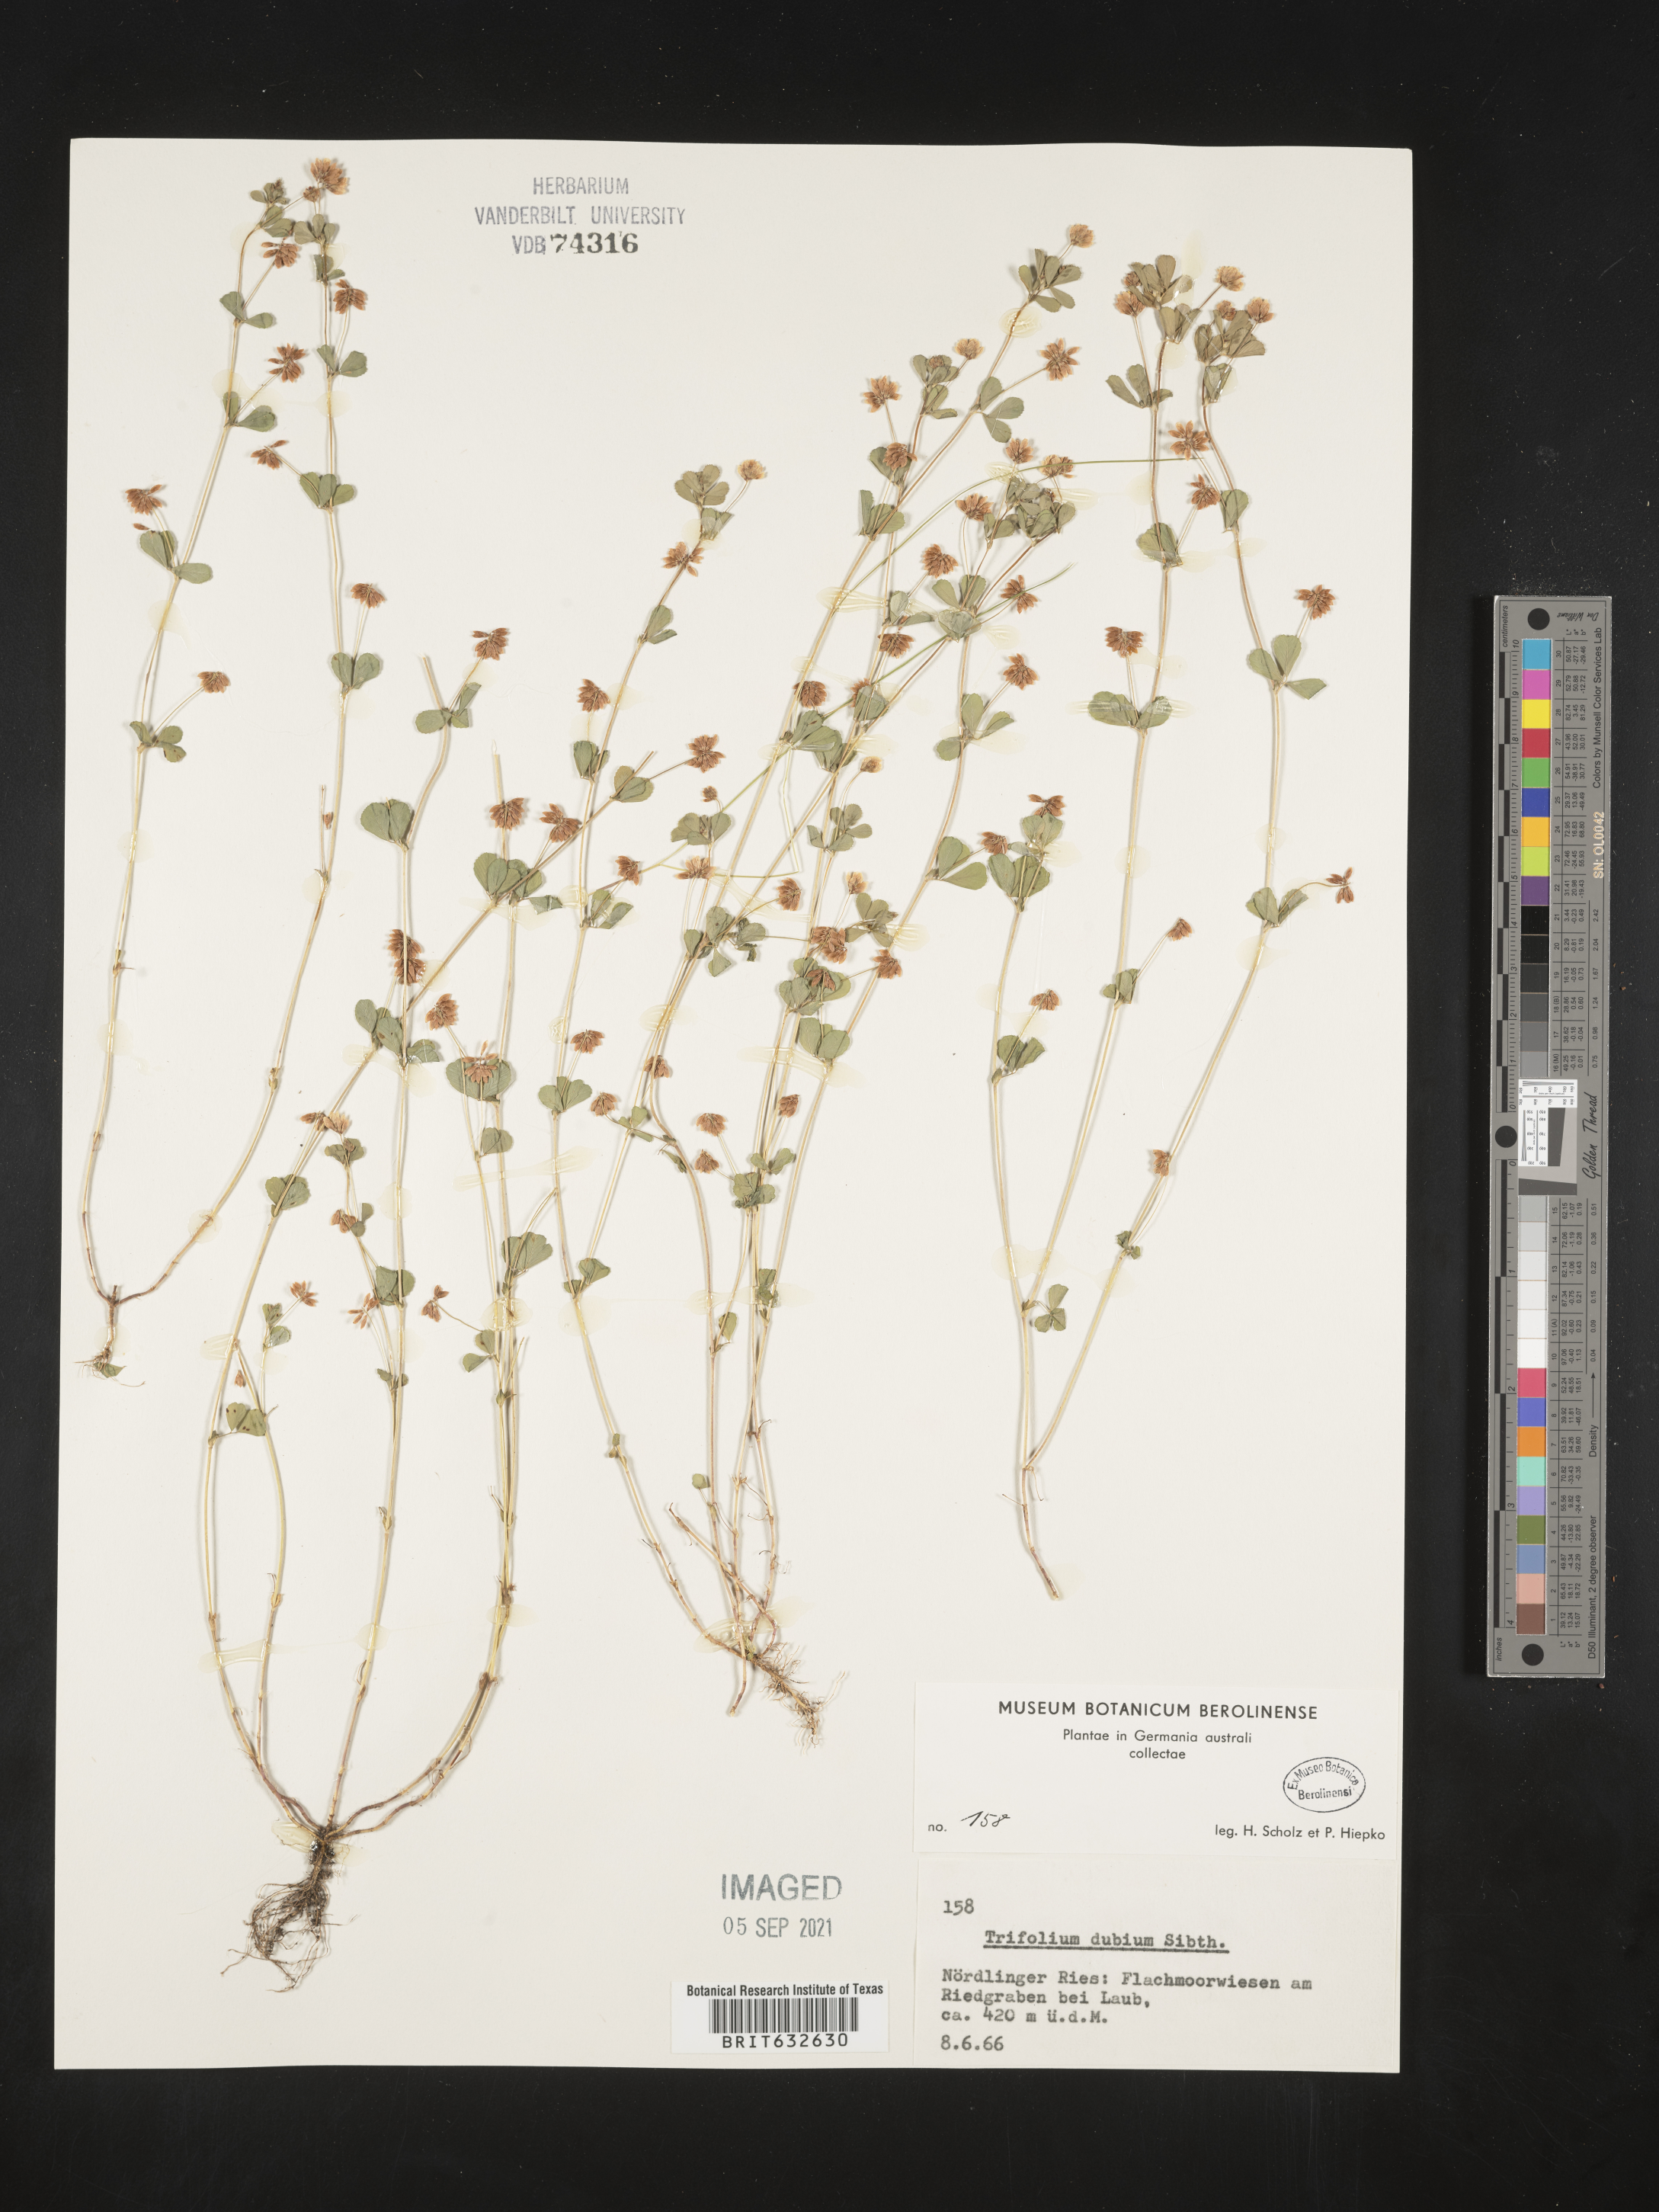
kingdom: Plantae
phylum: Tracheophyta
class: Magnoliopsida
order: Fabales
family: Fabaceae
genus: Trifolium
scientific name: Trifolium
